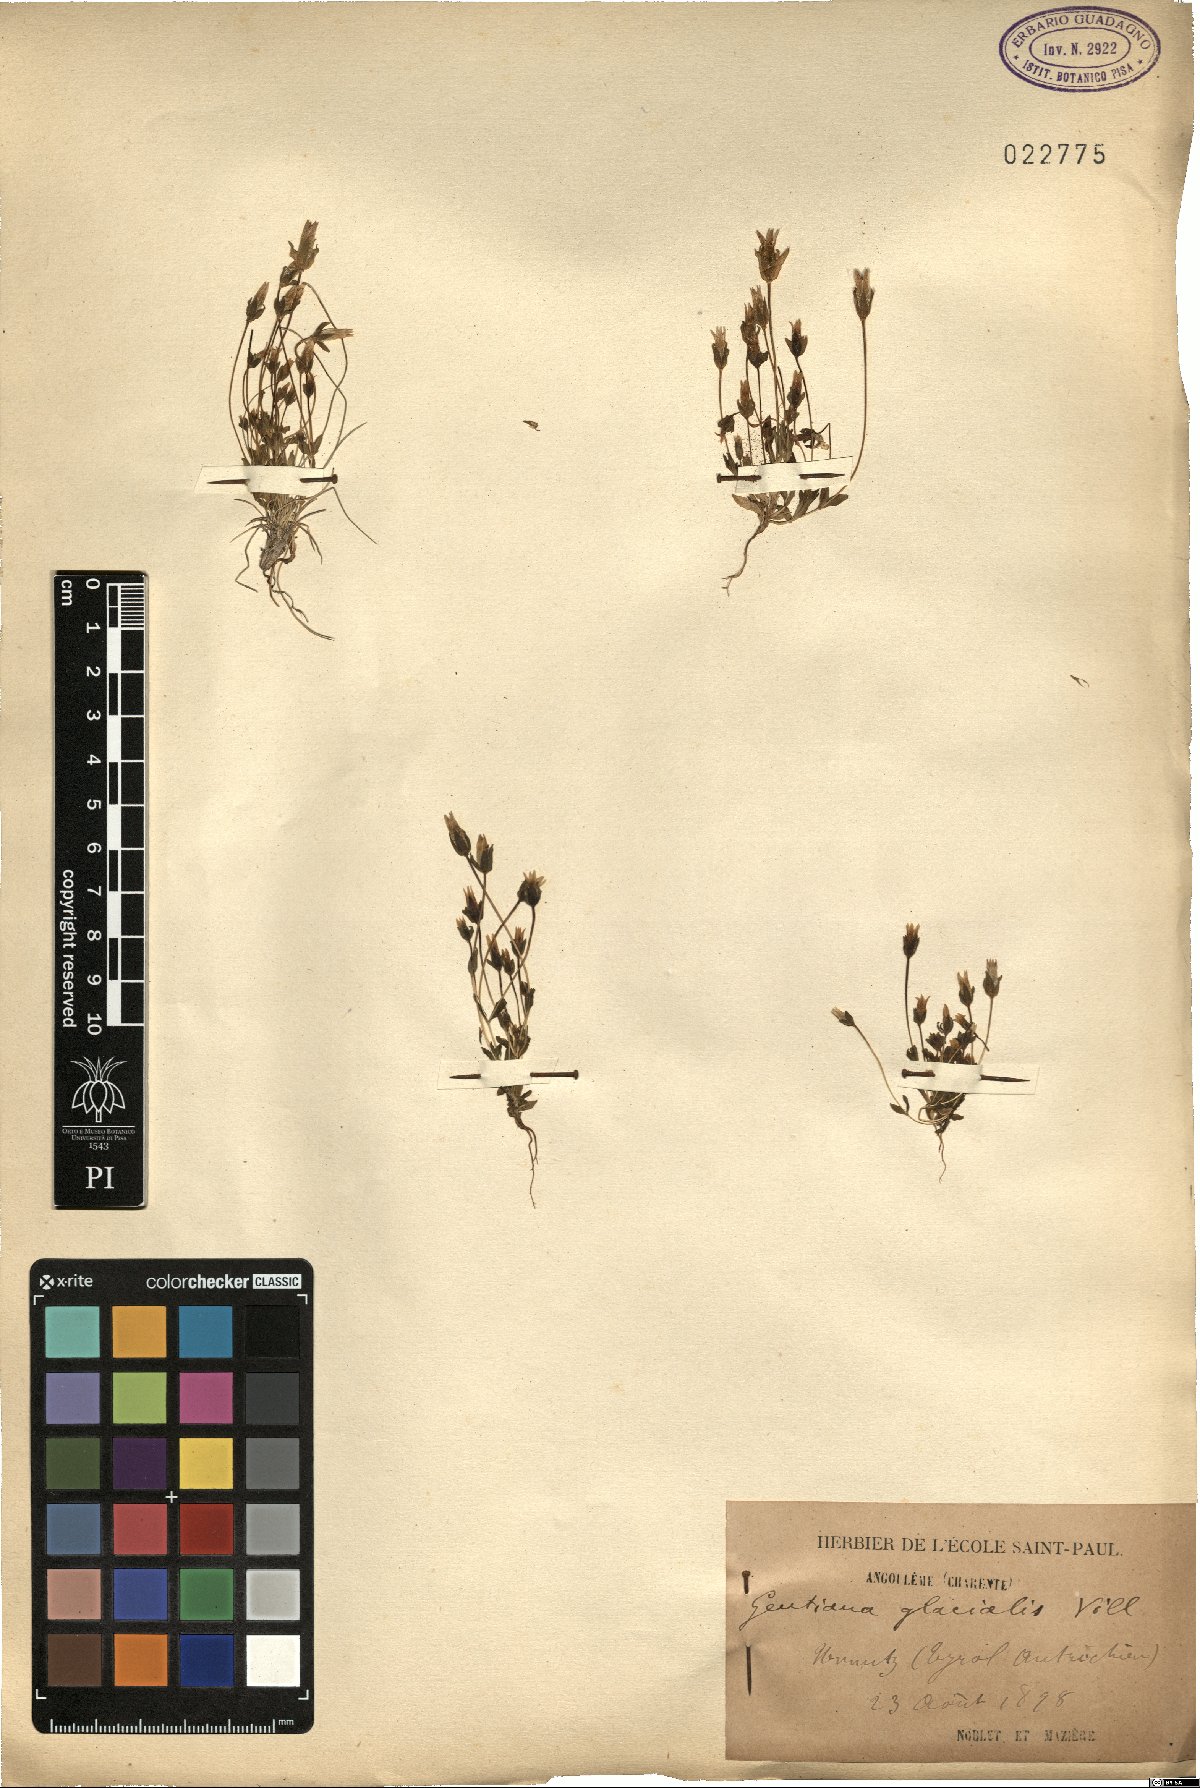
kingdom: Plantae
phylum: Tracheophyta
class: Magnoliopsida
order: Gentianales
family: Gentianaceae
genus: Comastoma
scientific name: Comastoma tenellum
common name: Dane's dwarf gentian
